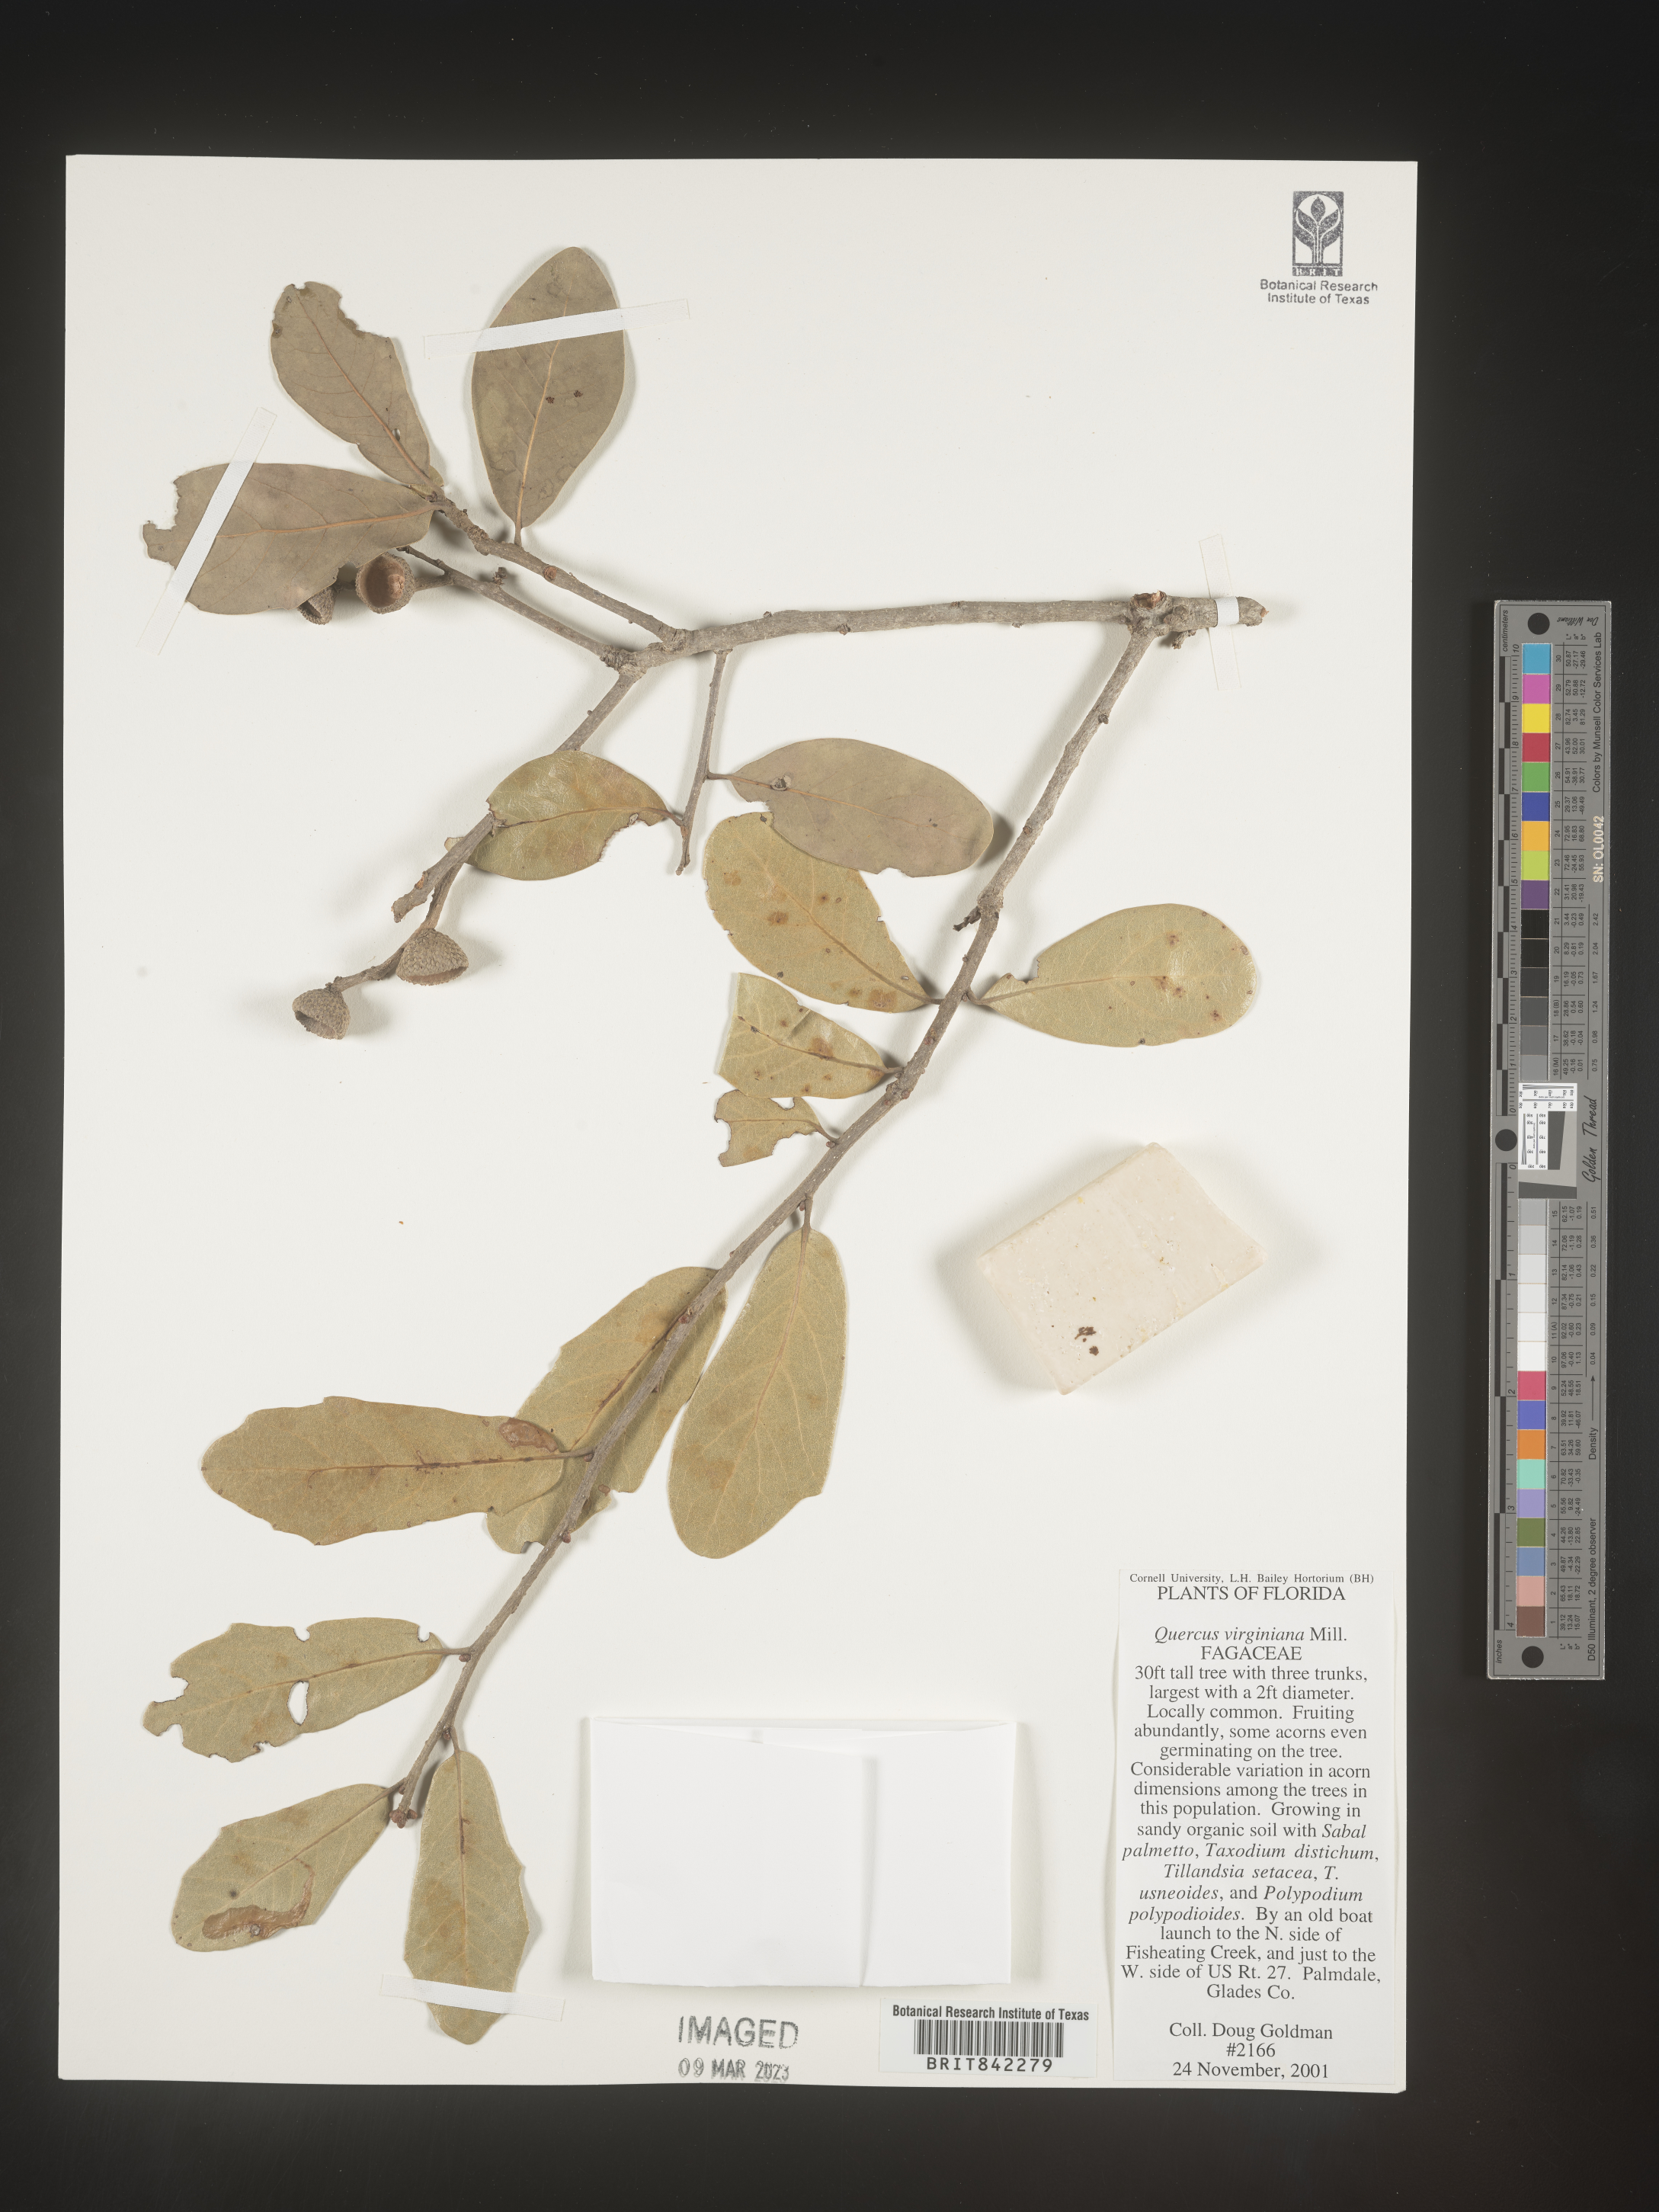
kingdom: Plantae
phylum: Tracheophyta
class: Magnoliopsida
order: Fagales
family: Fagaceae
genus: Quercus
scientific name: Quercus virginiana
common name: Southern live oak
